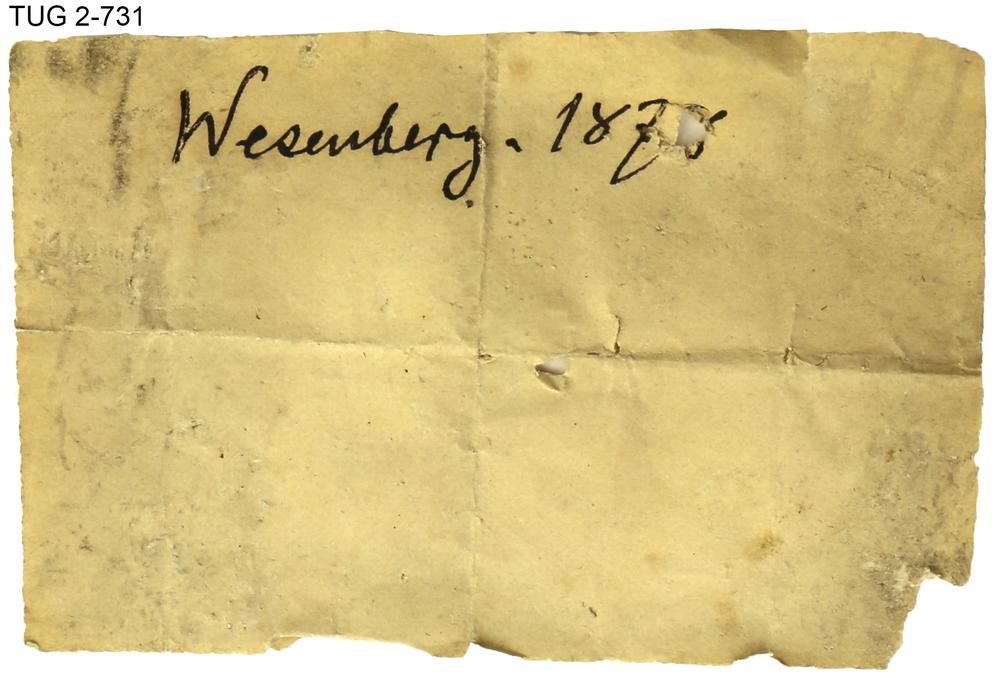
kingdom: Animalia
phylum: Mollusca
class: Cephalopoda
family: Trocholitidae
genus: Discoceras
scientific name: Discoceras
